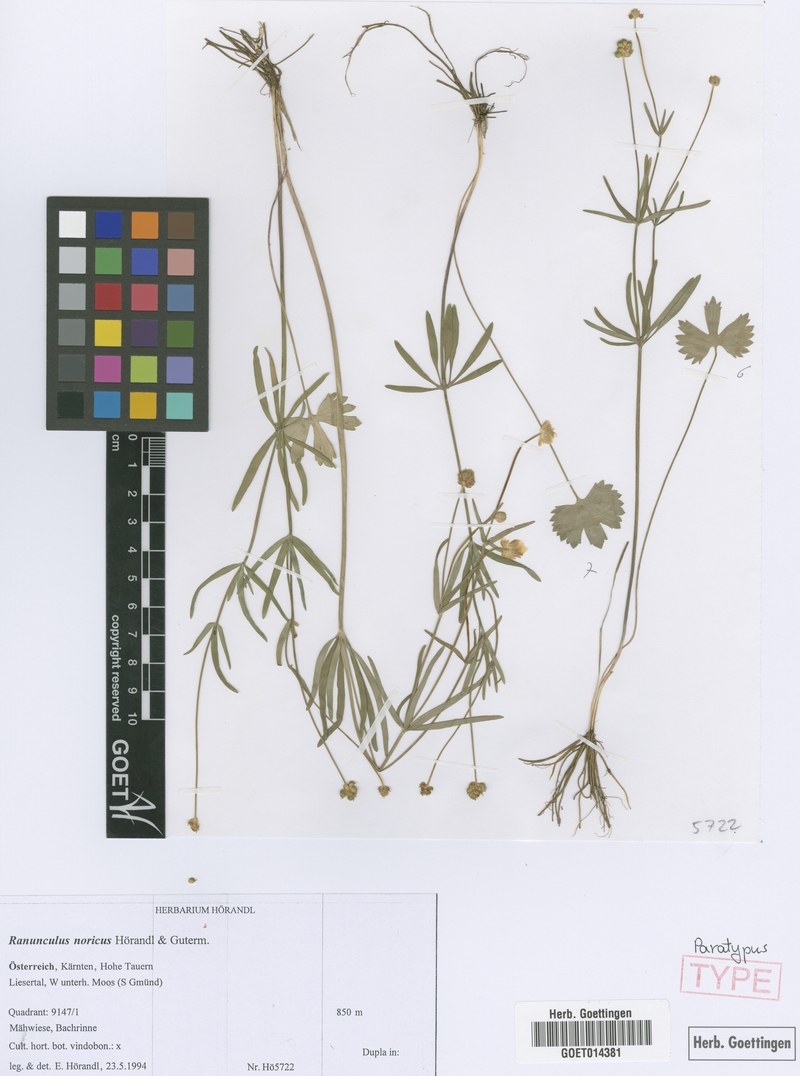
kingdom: Plantae
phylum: Tracheophyta
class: Magnoliopsida
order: Ranunculales
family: Ranunculaceae
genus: Ranunculus
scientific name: Ranunculus noricus
